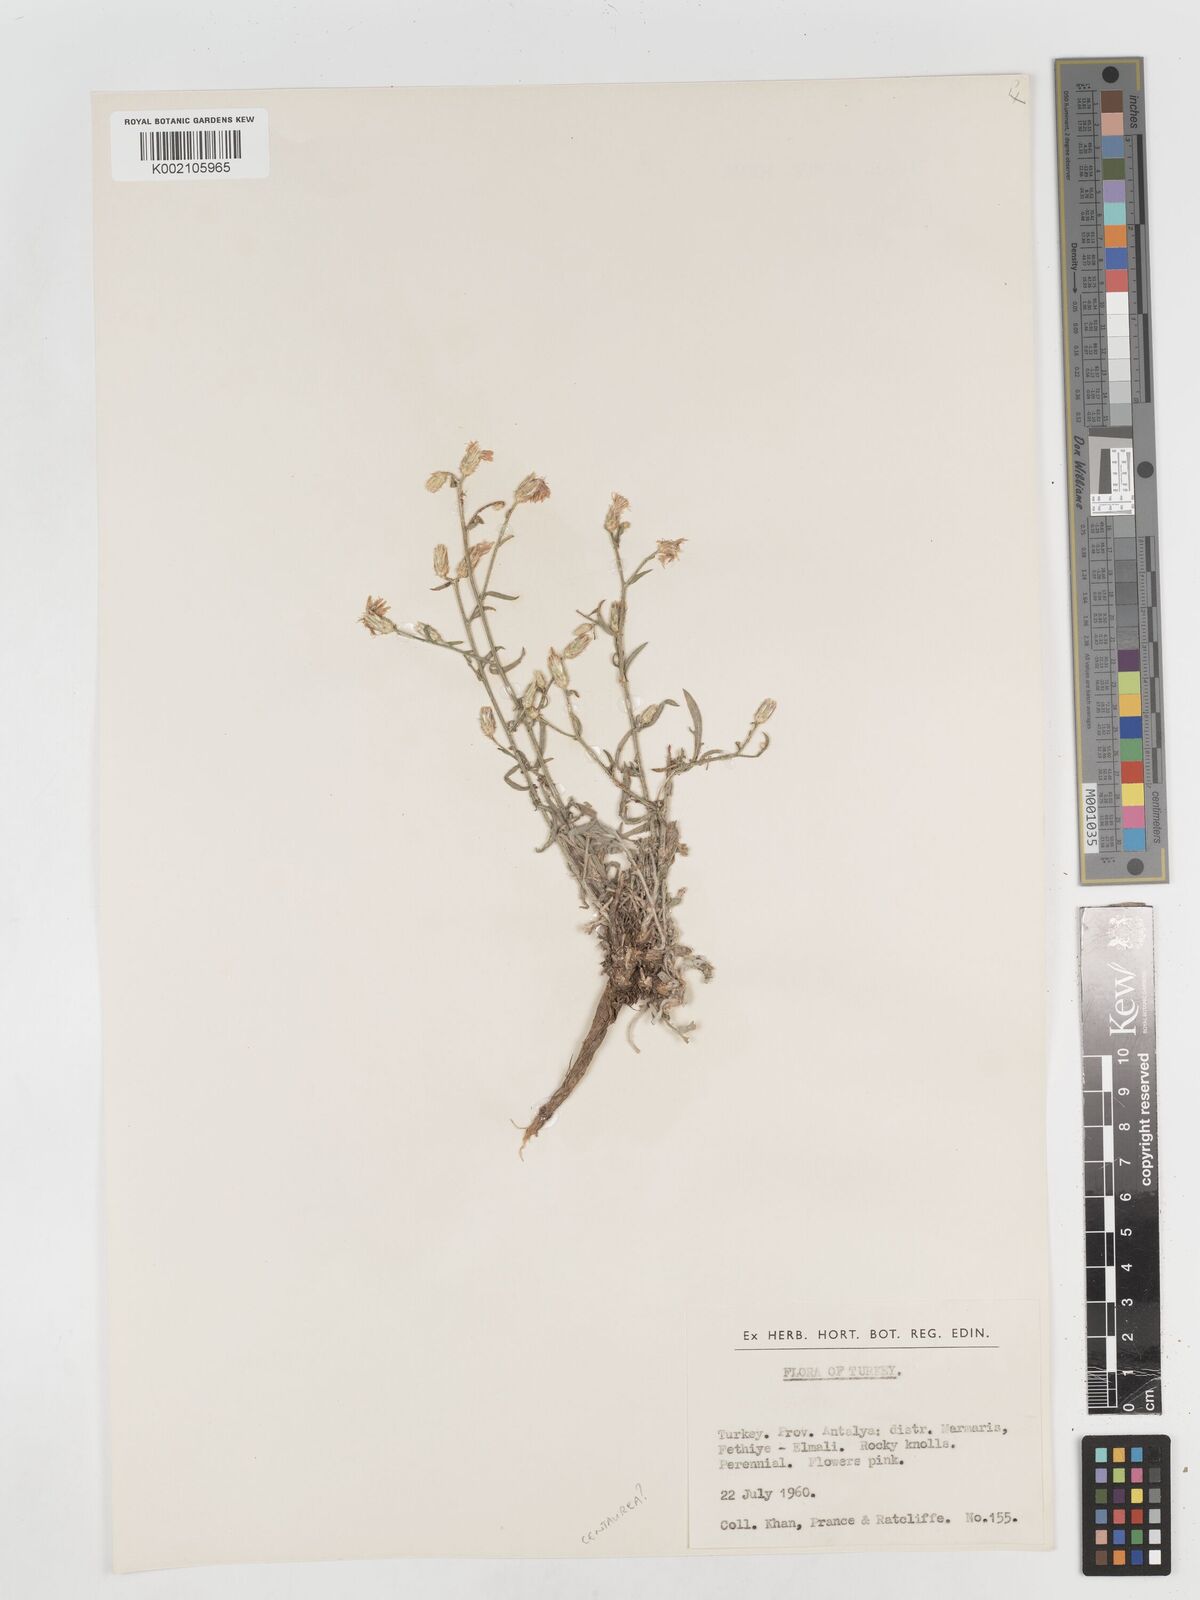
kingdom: Plantae
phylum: Tracheophyta
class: Magnoliopsida
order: Asterales
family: Asteraceae
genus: Centaurea
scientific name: Centaurea
